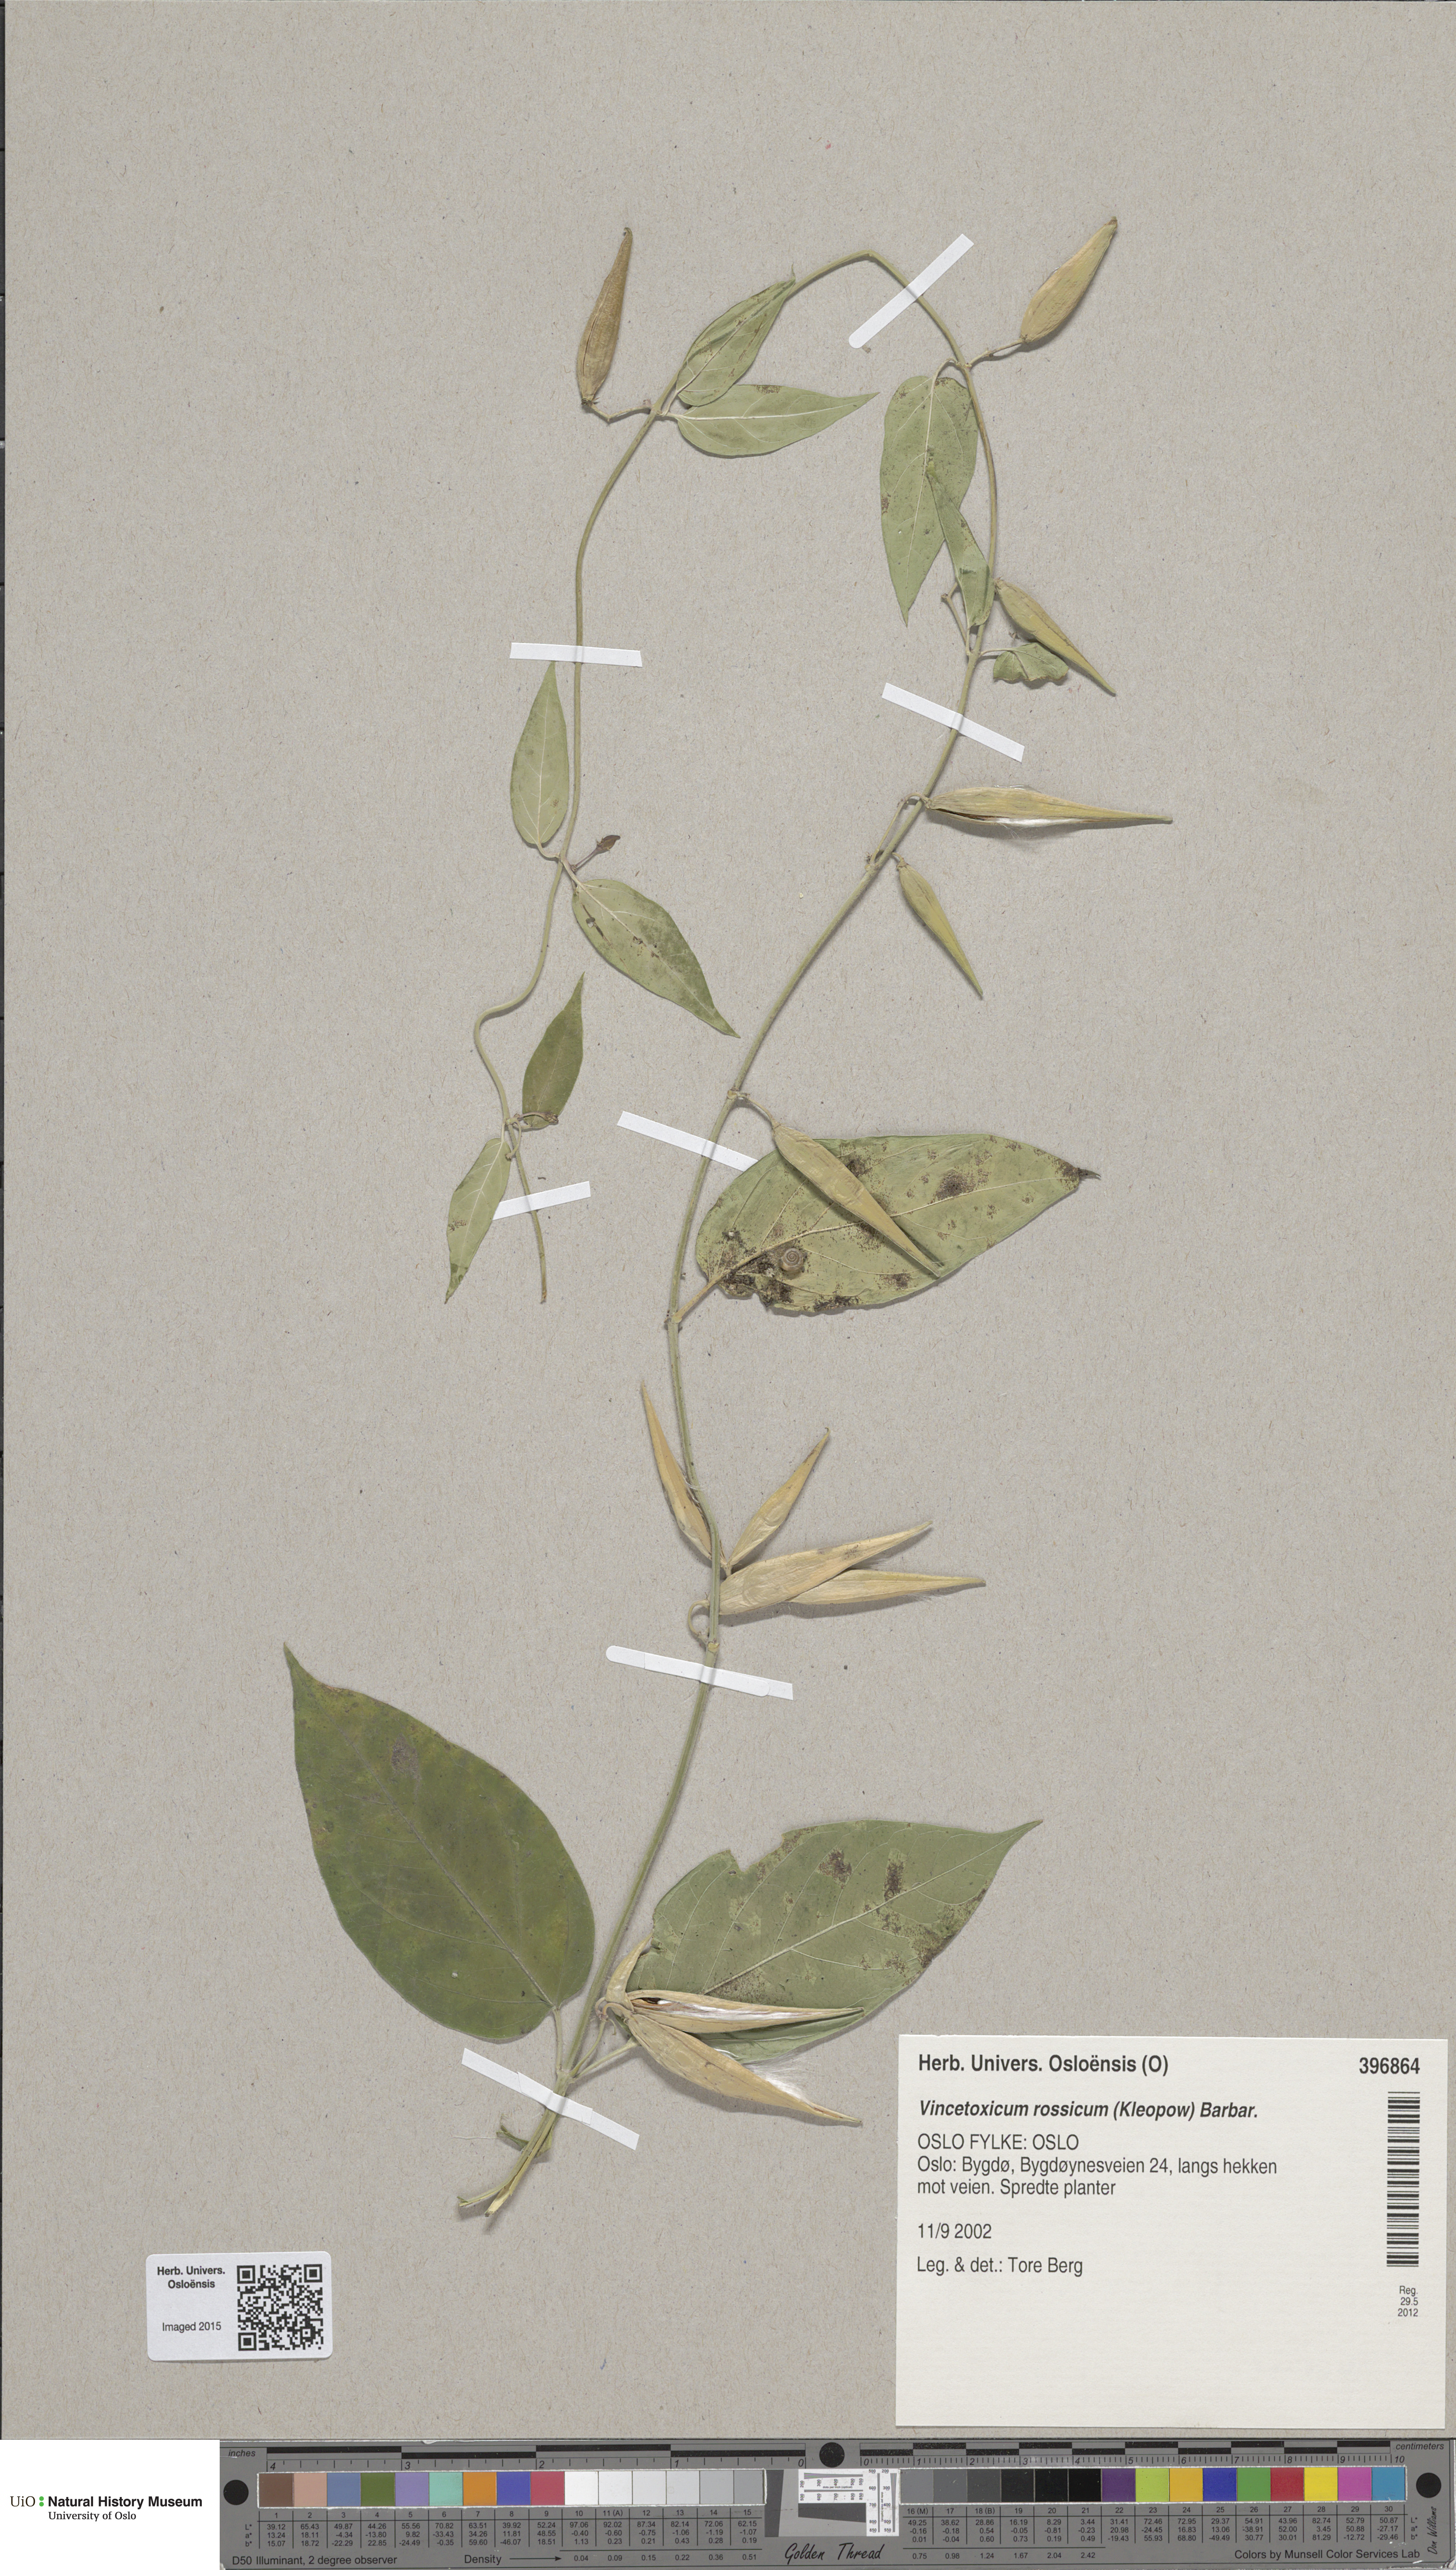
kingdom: Plantae
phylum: Tracheophyta
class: Magnoliopsida
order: Gentianales
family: Apocynaceae
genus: Vincetoxicum
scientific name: Vincetoxicum rossicum
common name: Dog-strangling vine
